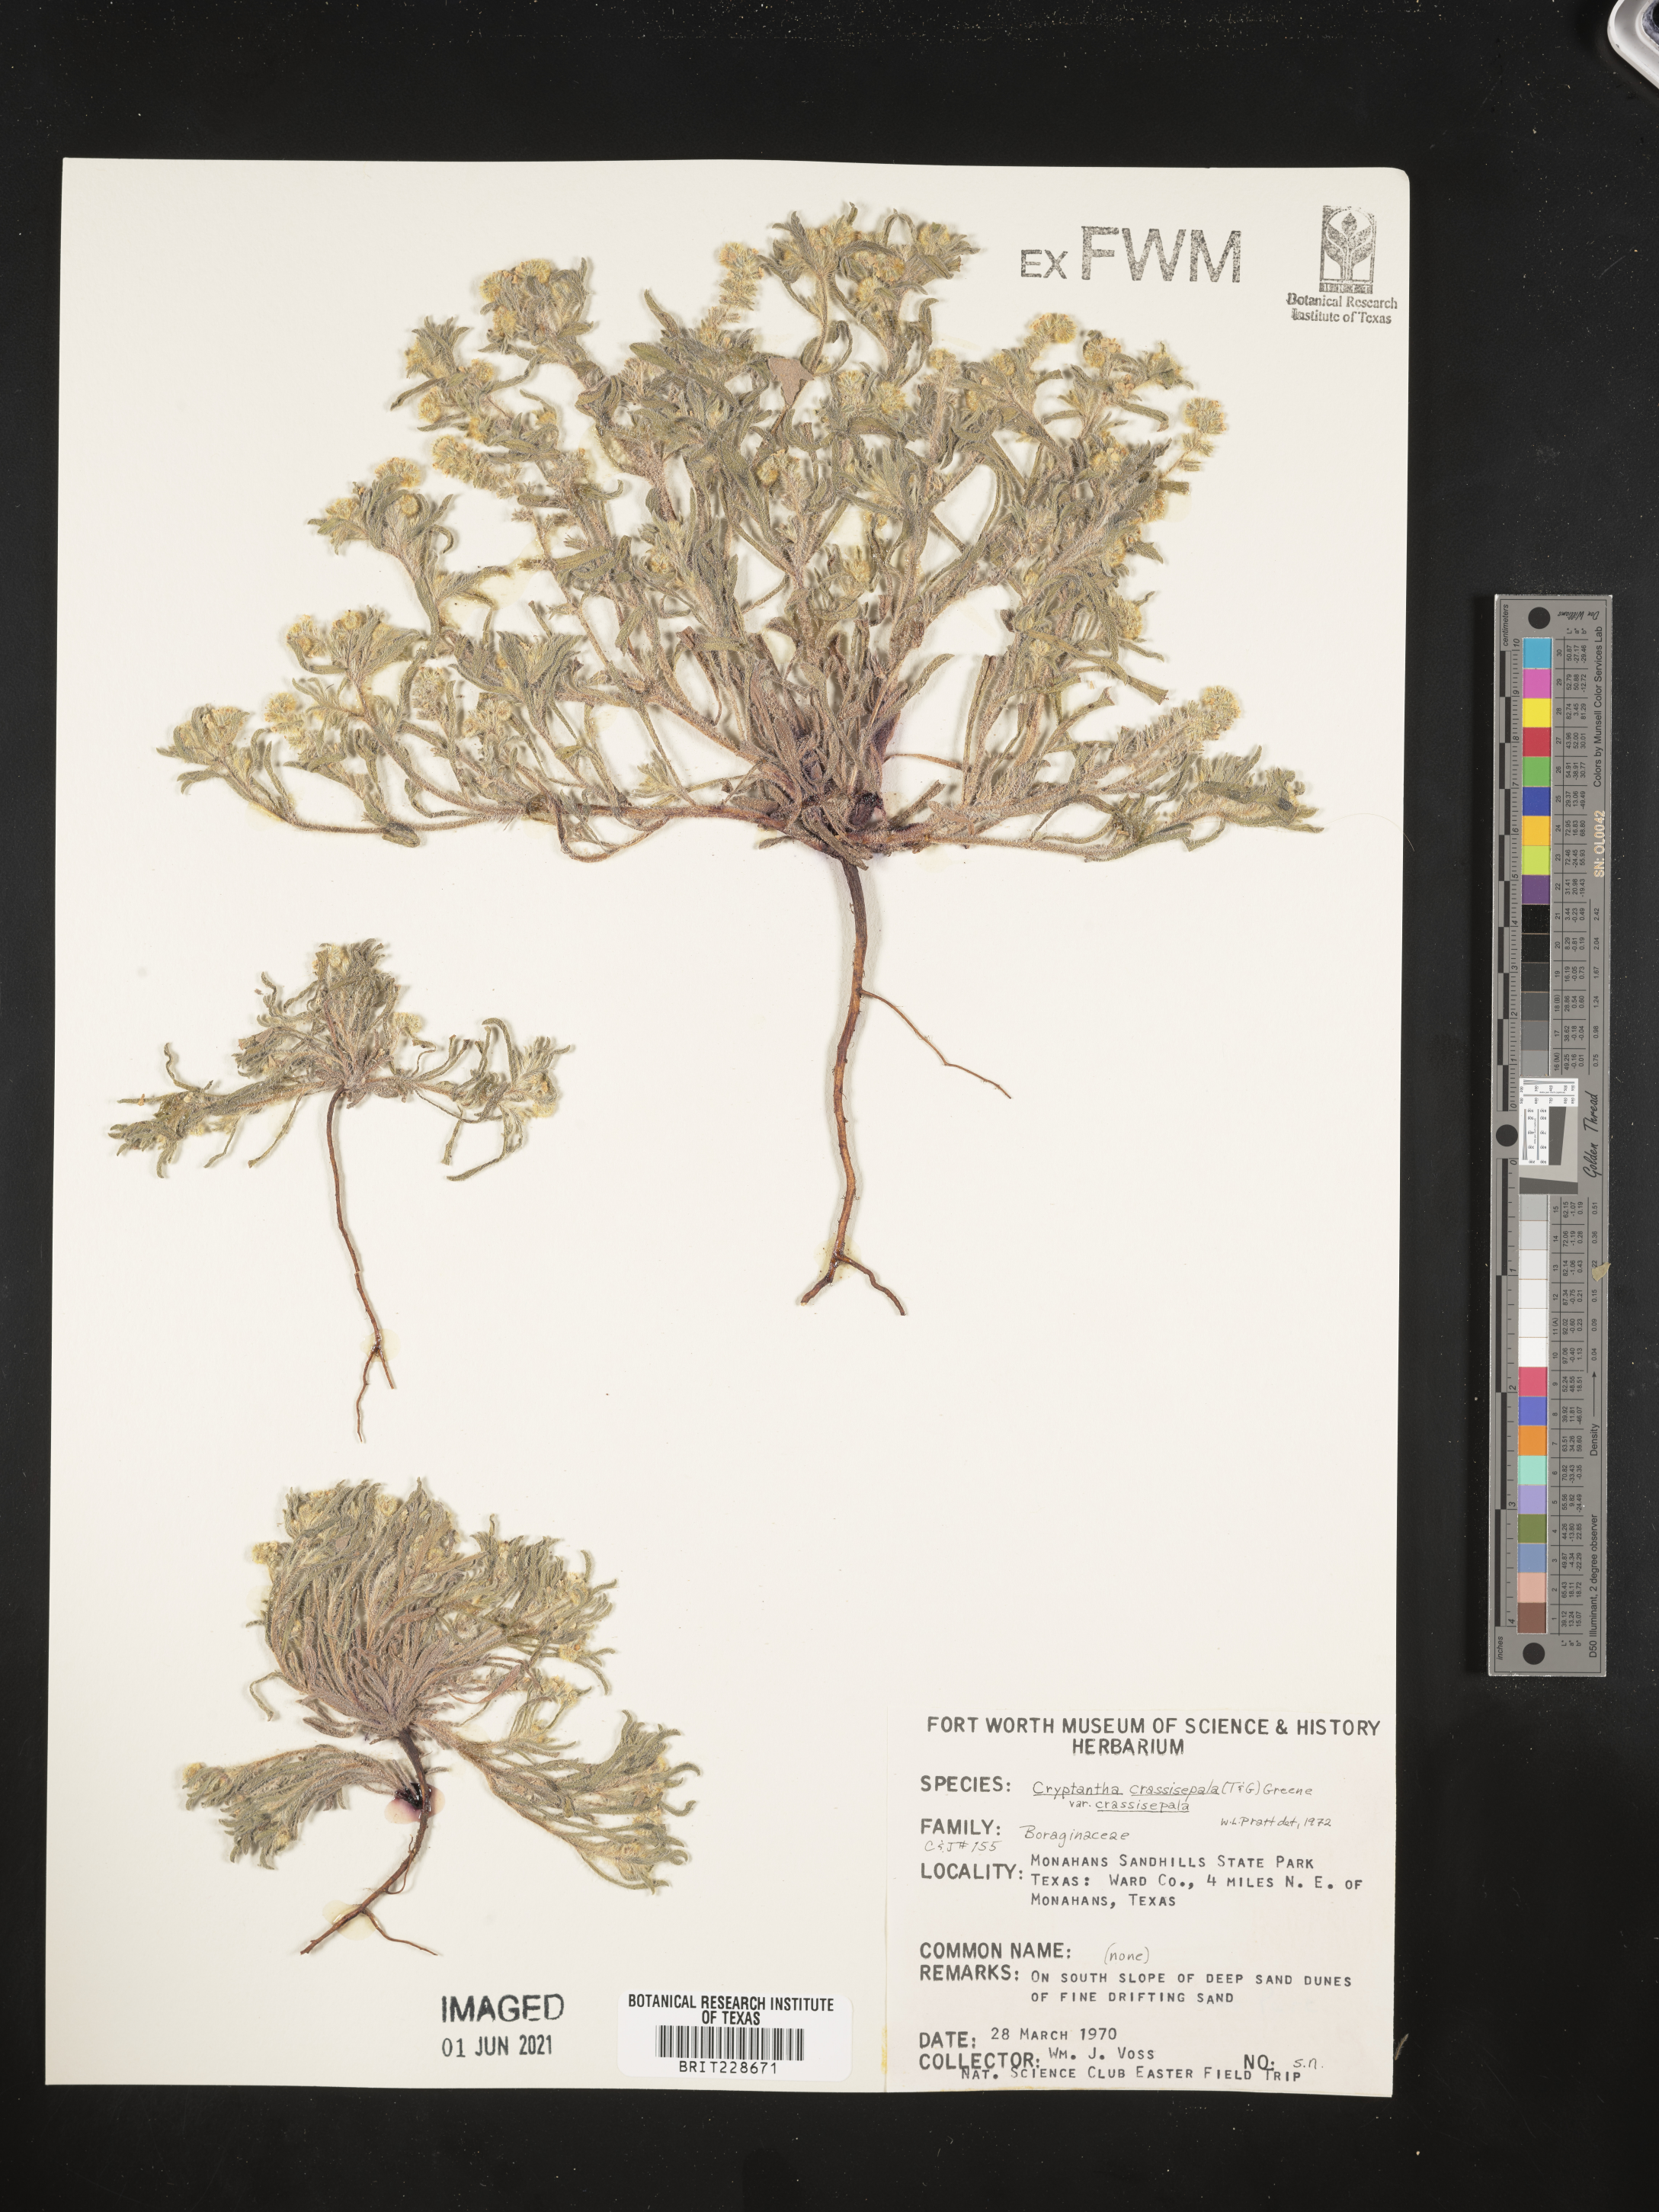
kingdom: Plantae
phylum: Tracheophyta
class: Magnoliopsida
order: Boraginales
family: Boraginaceae
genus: Cryptantha
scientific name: Cryptantha crassisepala
